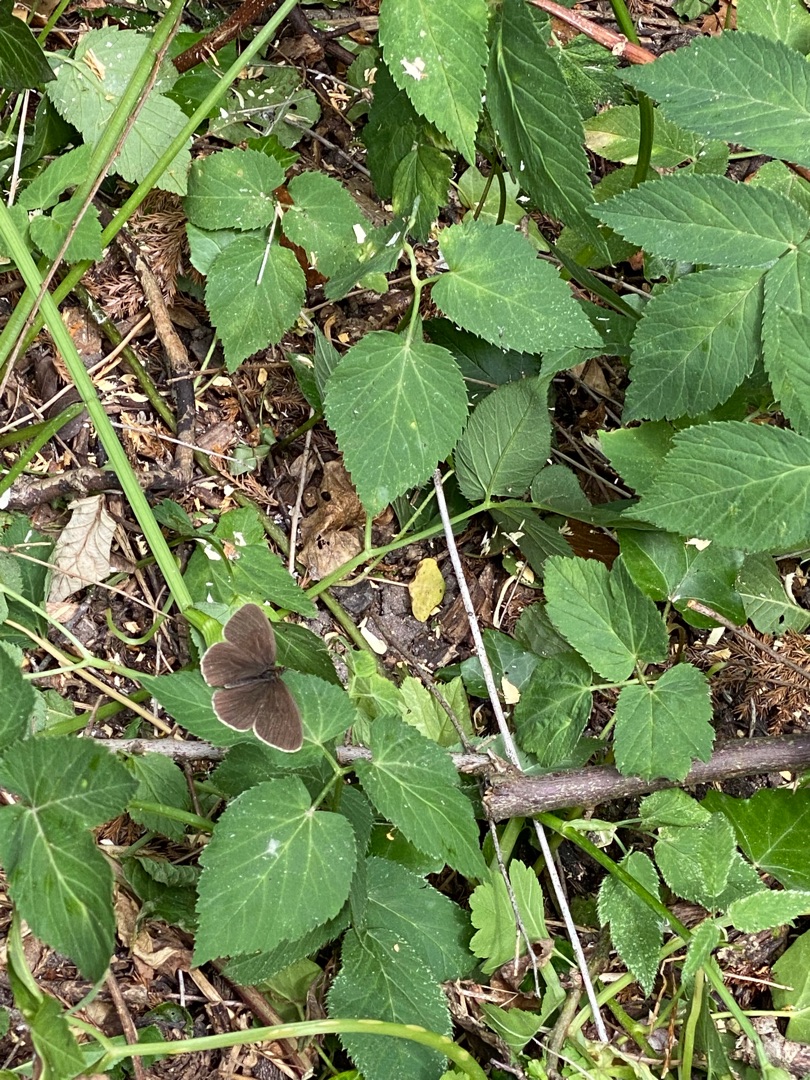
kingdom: Animalia
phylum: Arthropoda
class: Insecta
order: Lepidoptera
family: Nymphalidae
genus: Aphantopus
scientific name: Aphantopus hyperantus
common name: Engrandøje
